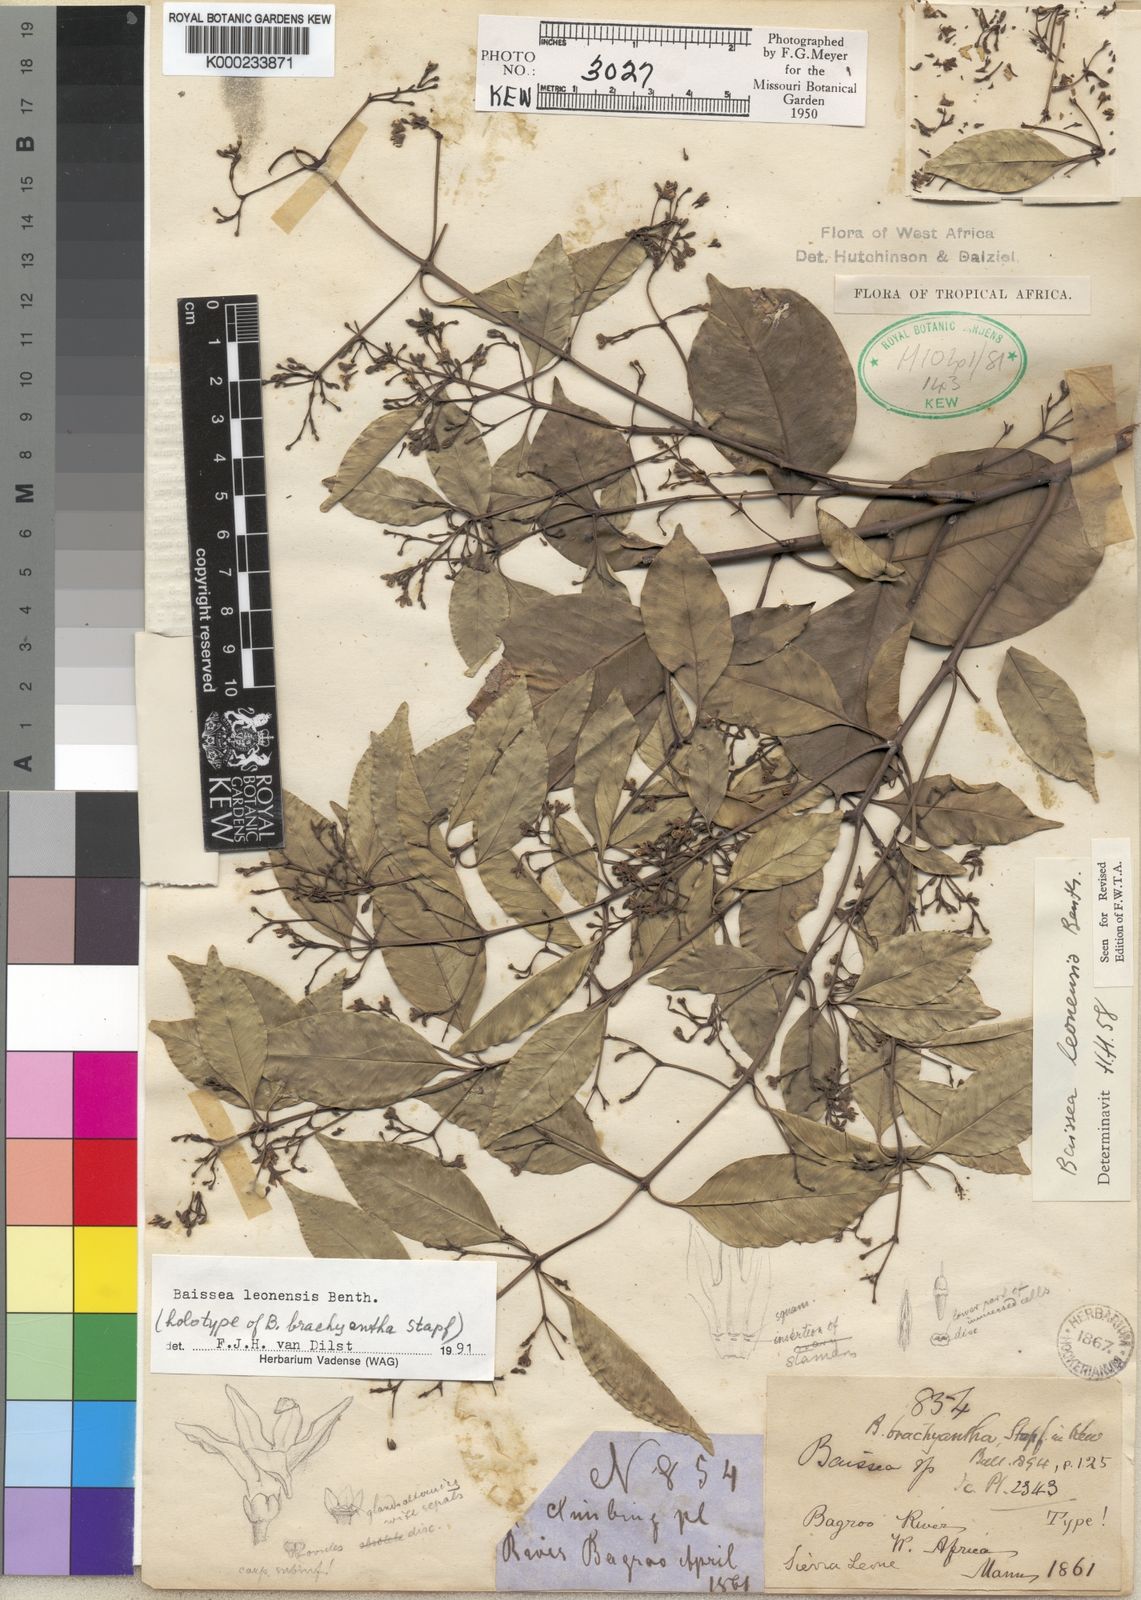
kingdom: Plantae
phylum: Tracheophyta
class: Magnoliopsida
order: Gentianales
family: Apocynaceae
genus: Baissea
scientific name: Baissea leonensis
